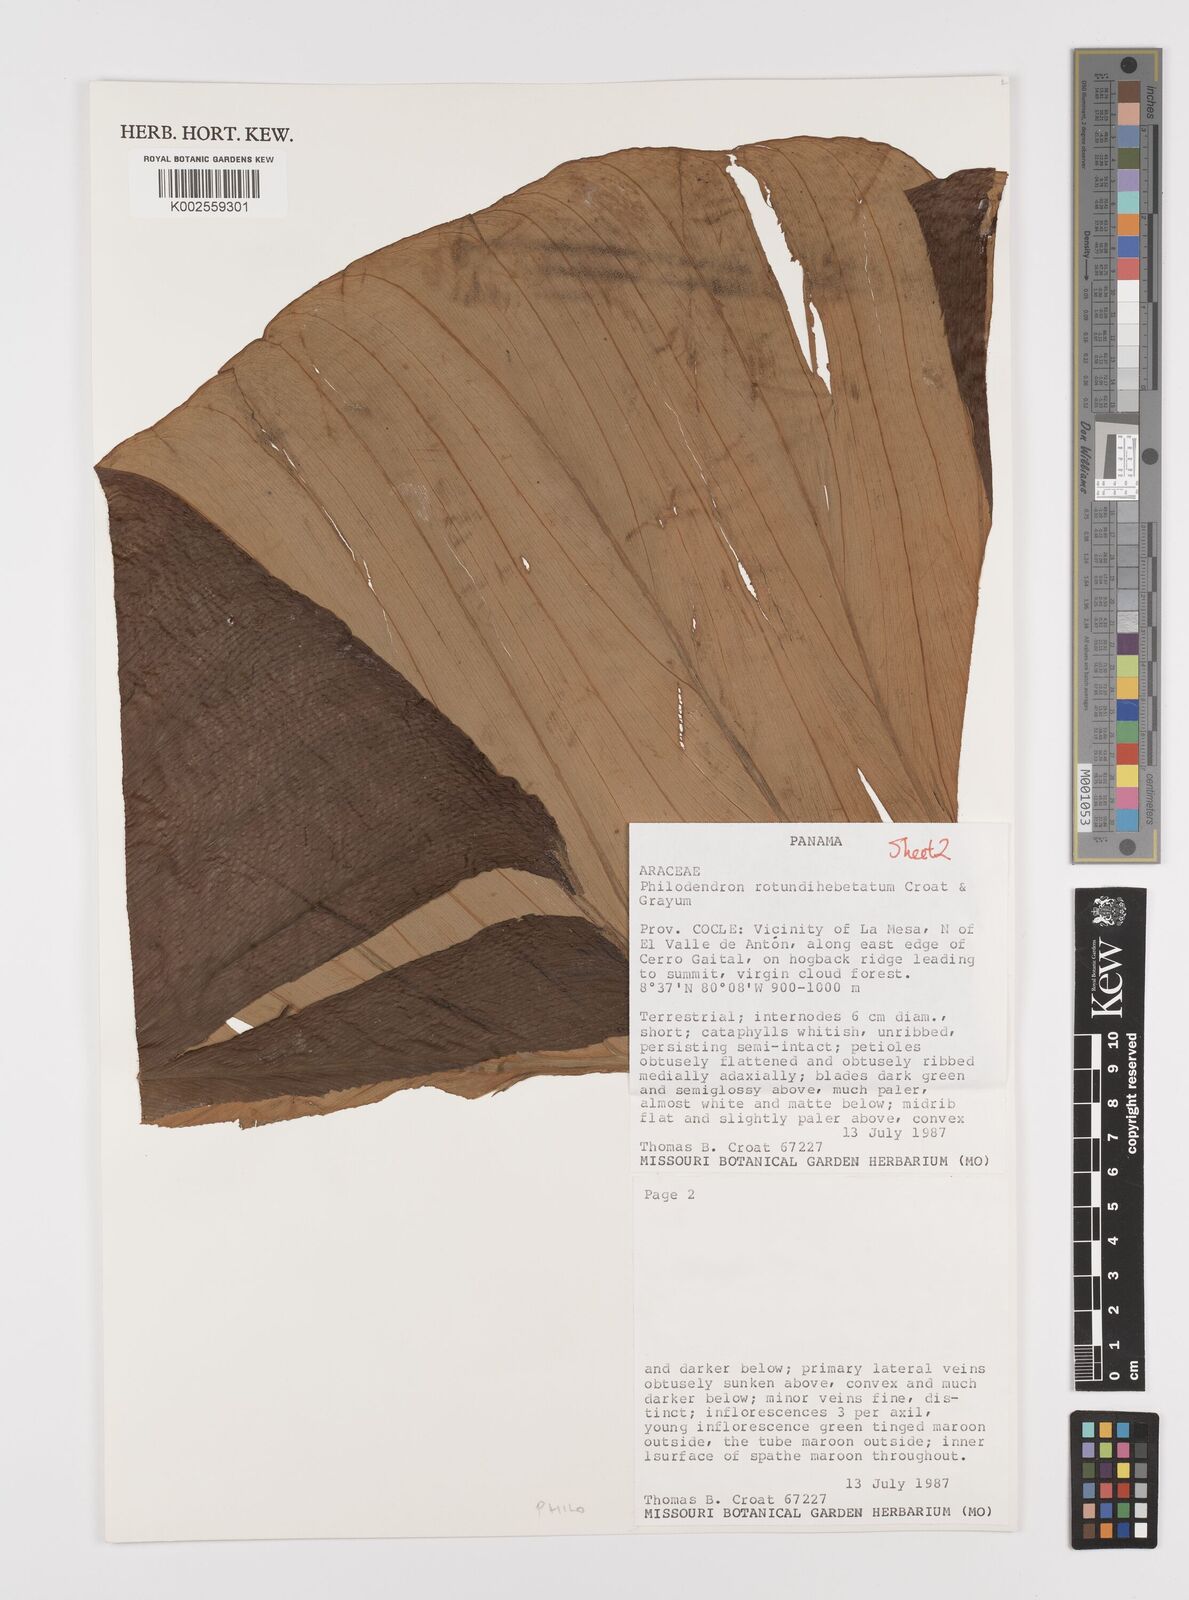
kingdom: Plantae
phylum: Tracheophyta
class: Liliopsida
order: Alismatales
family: Araceae
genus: Philodendron
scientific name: Philodendron
